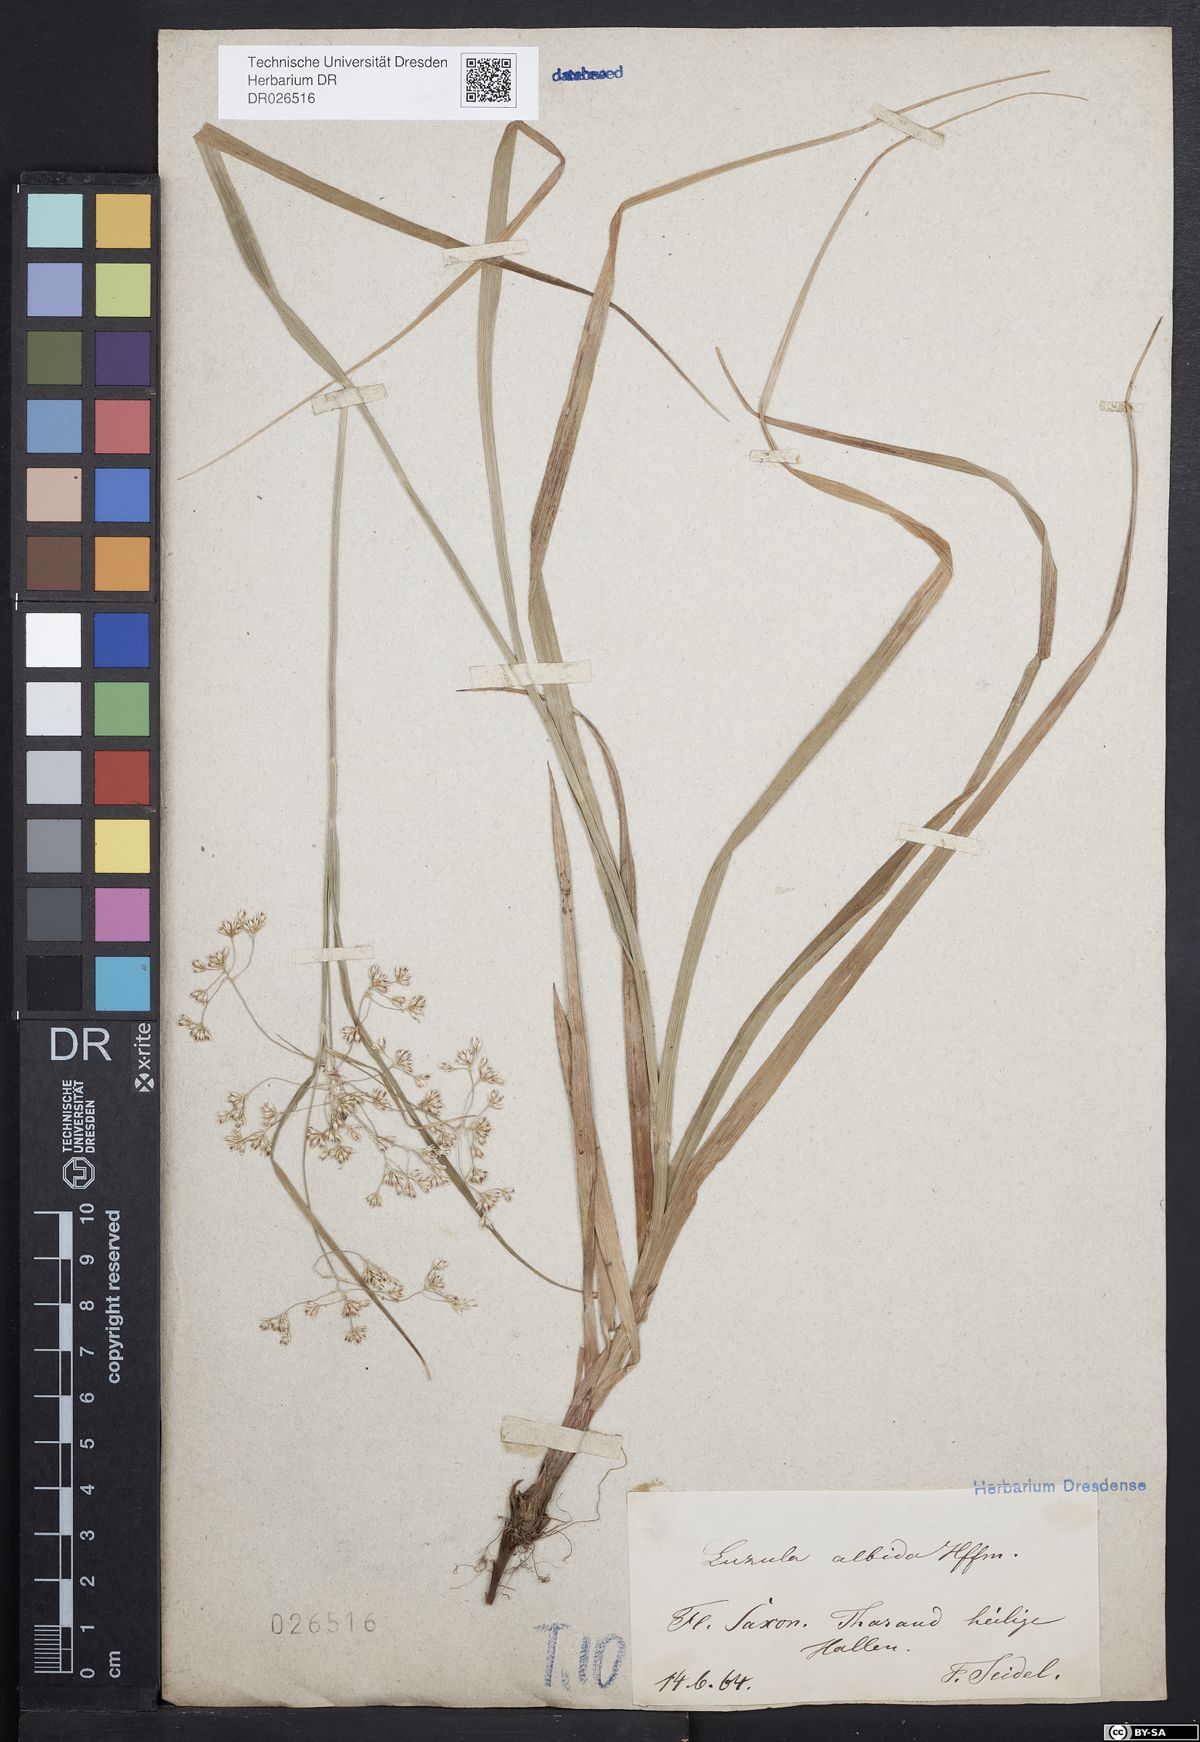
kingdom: Plantae
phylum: Tracheophyta
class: Liliopsida
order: Poales
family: Juncaceae
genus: Luzula
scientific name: Luzula luzuloides
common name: White wood-rush
